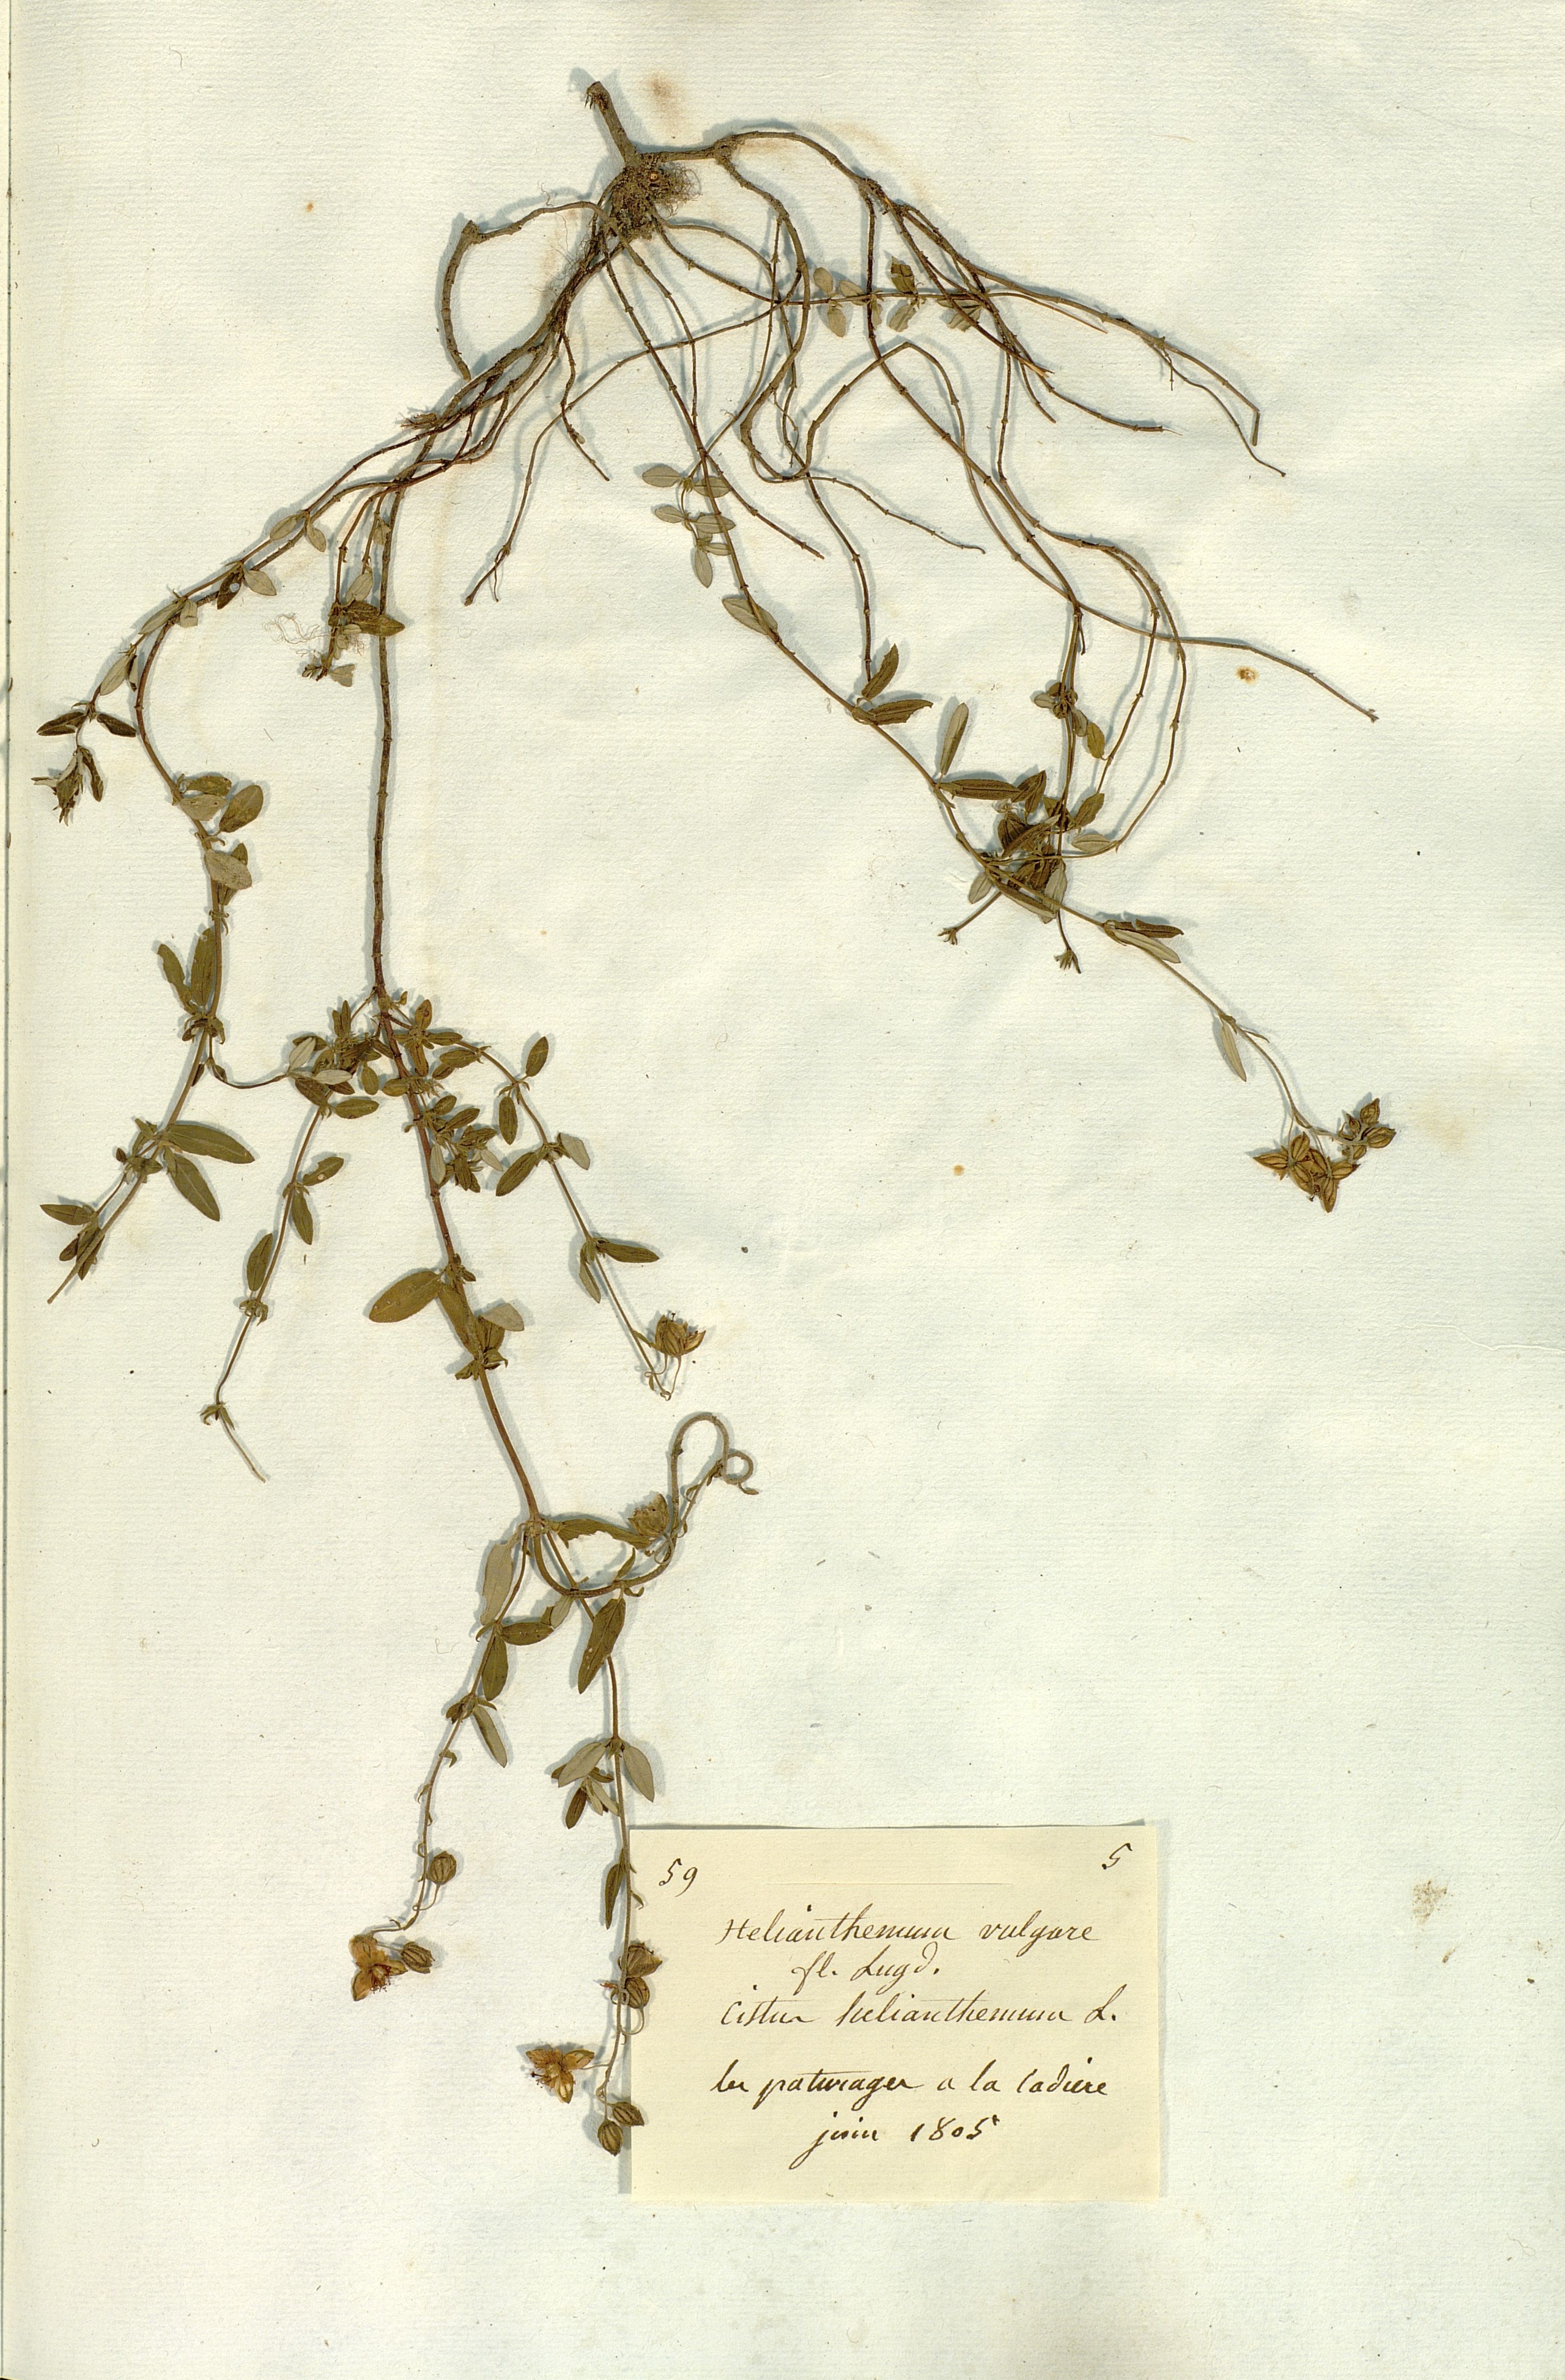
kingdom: Plantae
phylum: Tracheophyta
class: Magnoliopsida
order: Malvales
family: Cistaceae
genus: Helianthemum
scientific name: Helianthemum vulgare
